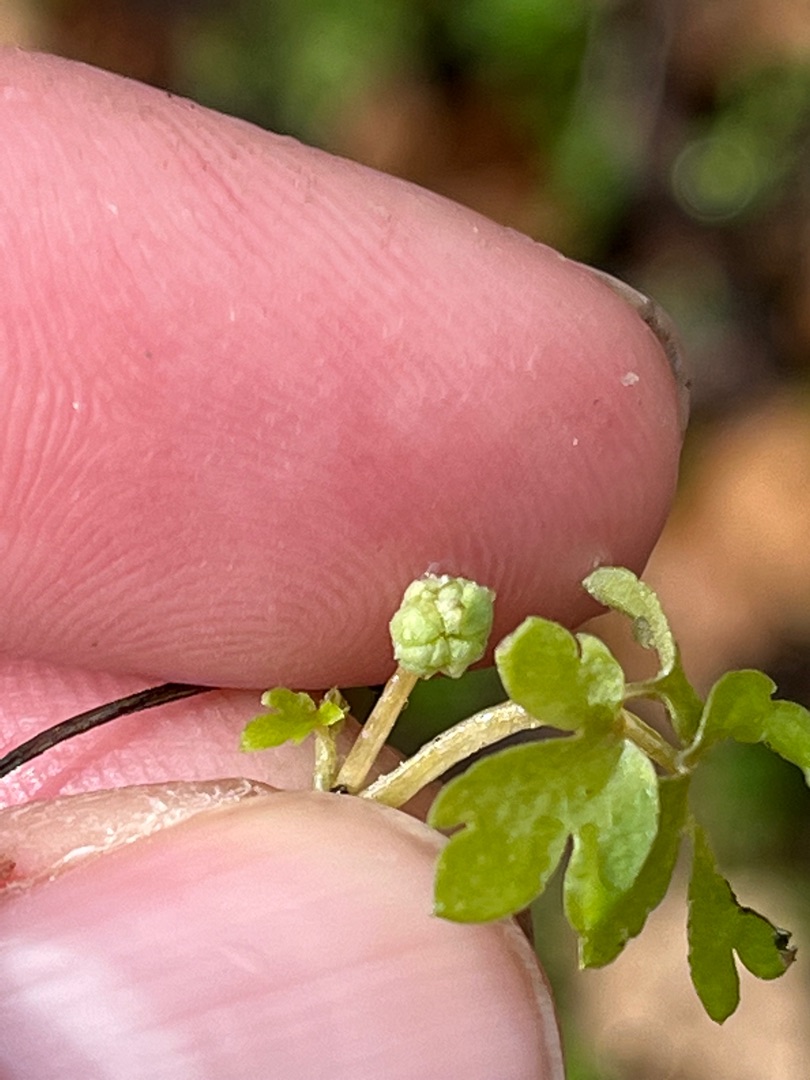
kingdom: Plantae
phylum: Tracheophyta
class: Magnoliopsida
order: Dipsacales
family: Viburnaceae
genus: Adoxa
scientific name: Adoxa moschatellina
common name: Desmerurt
